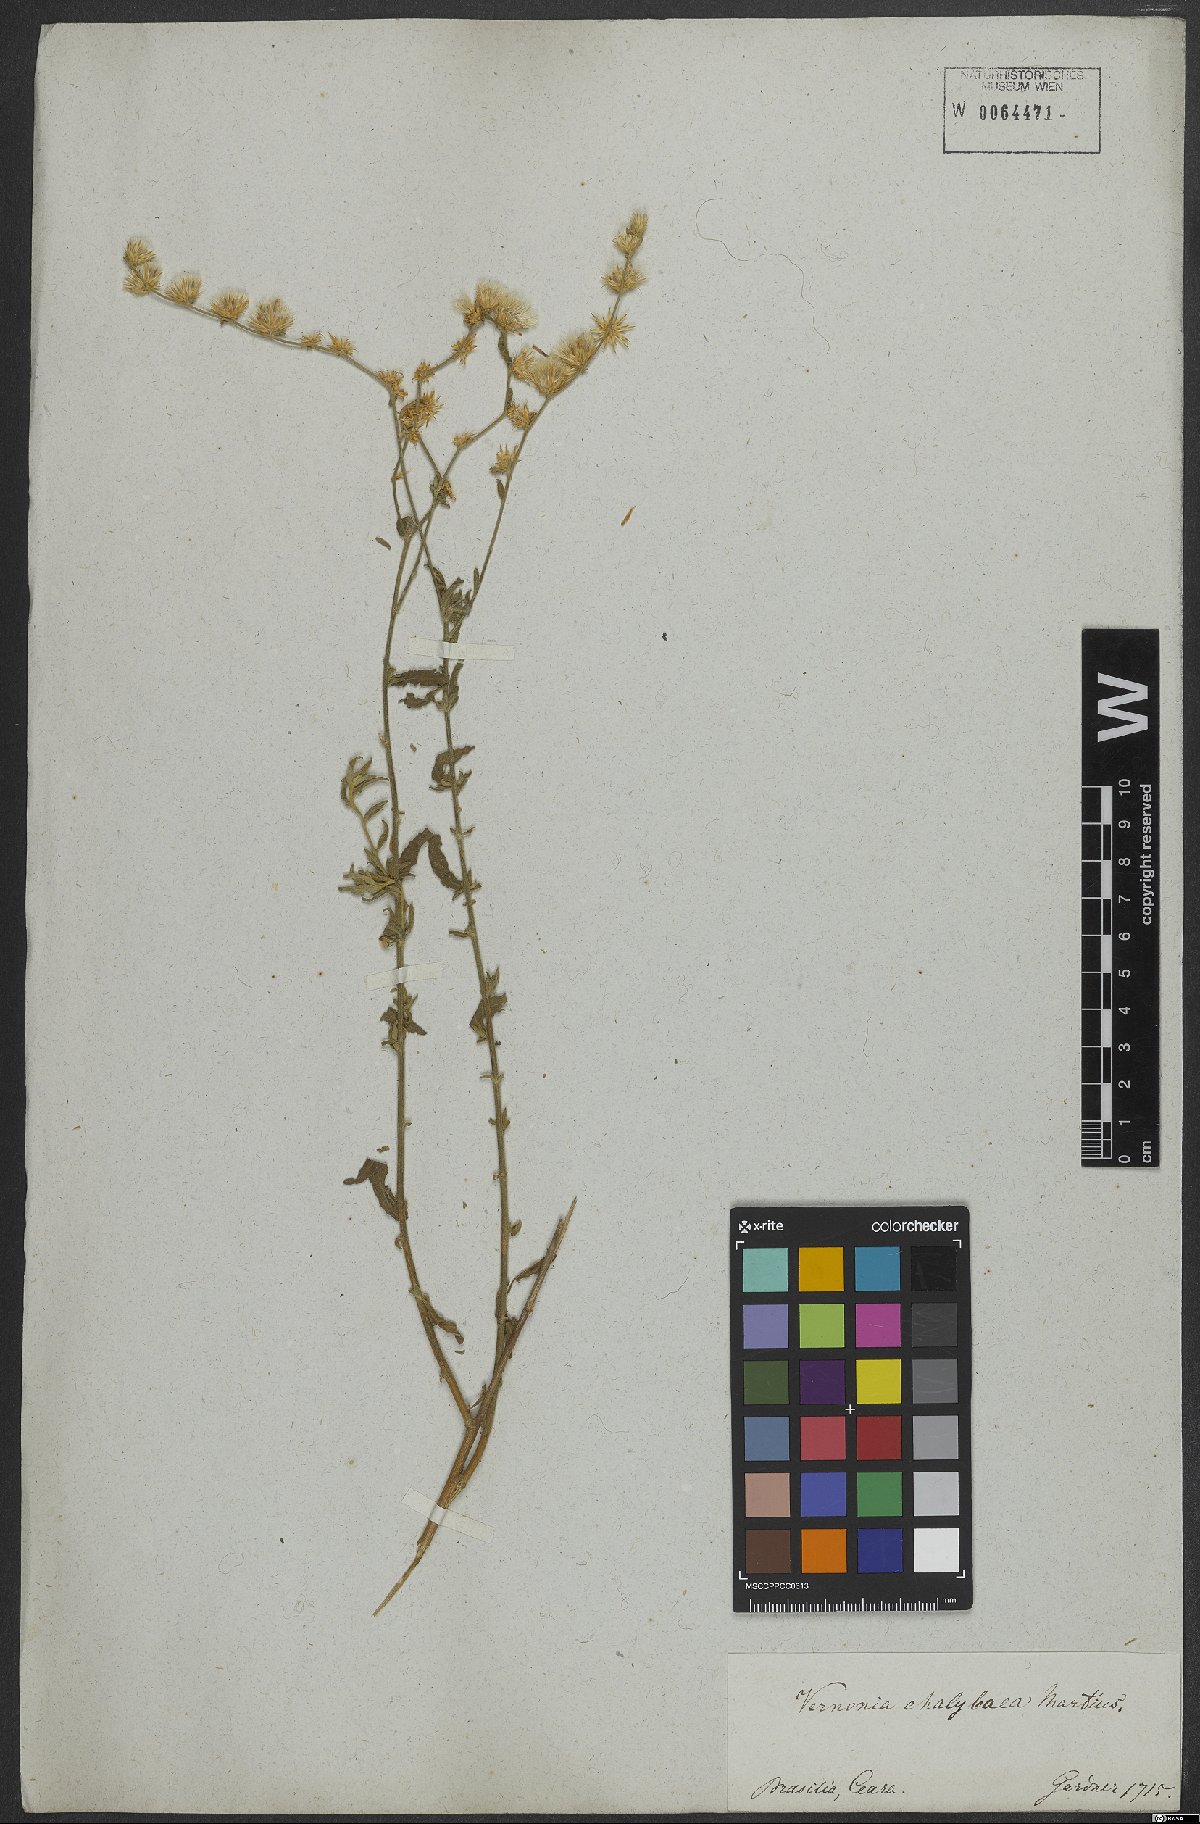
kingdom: Plantae
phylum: Tracheophyta
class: Magnoliopsida
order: Asterales
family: Asteraceae
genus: Lepidaploa
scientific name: Lepidaploa chalybaea
